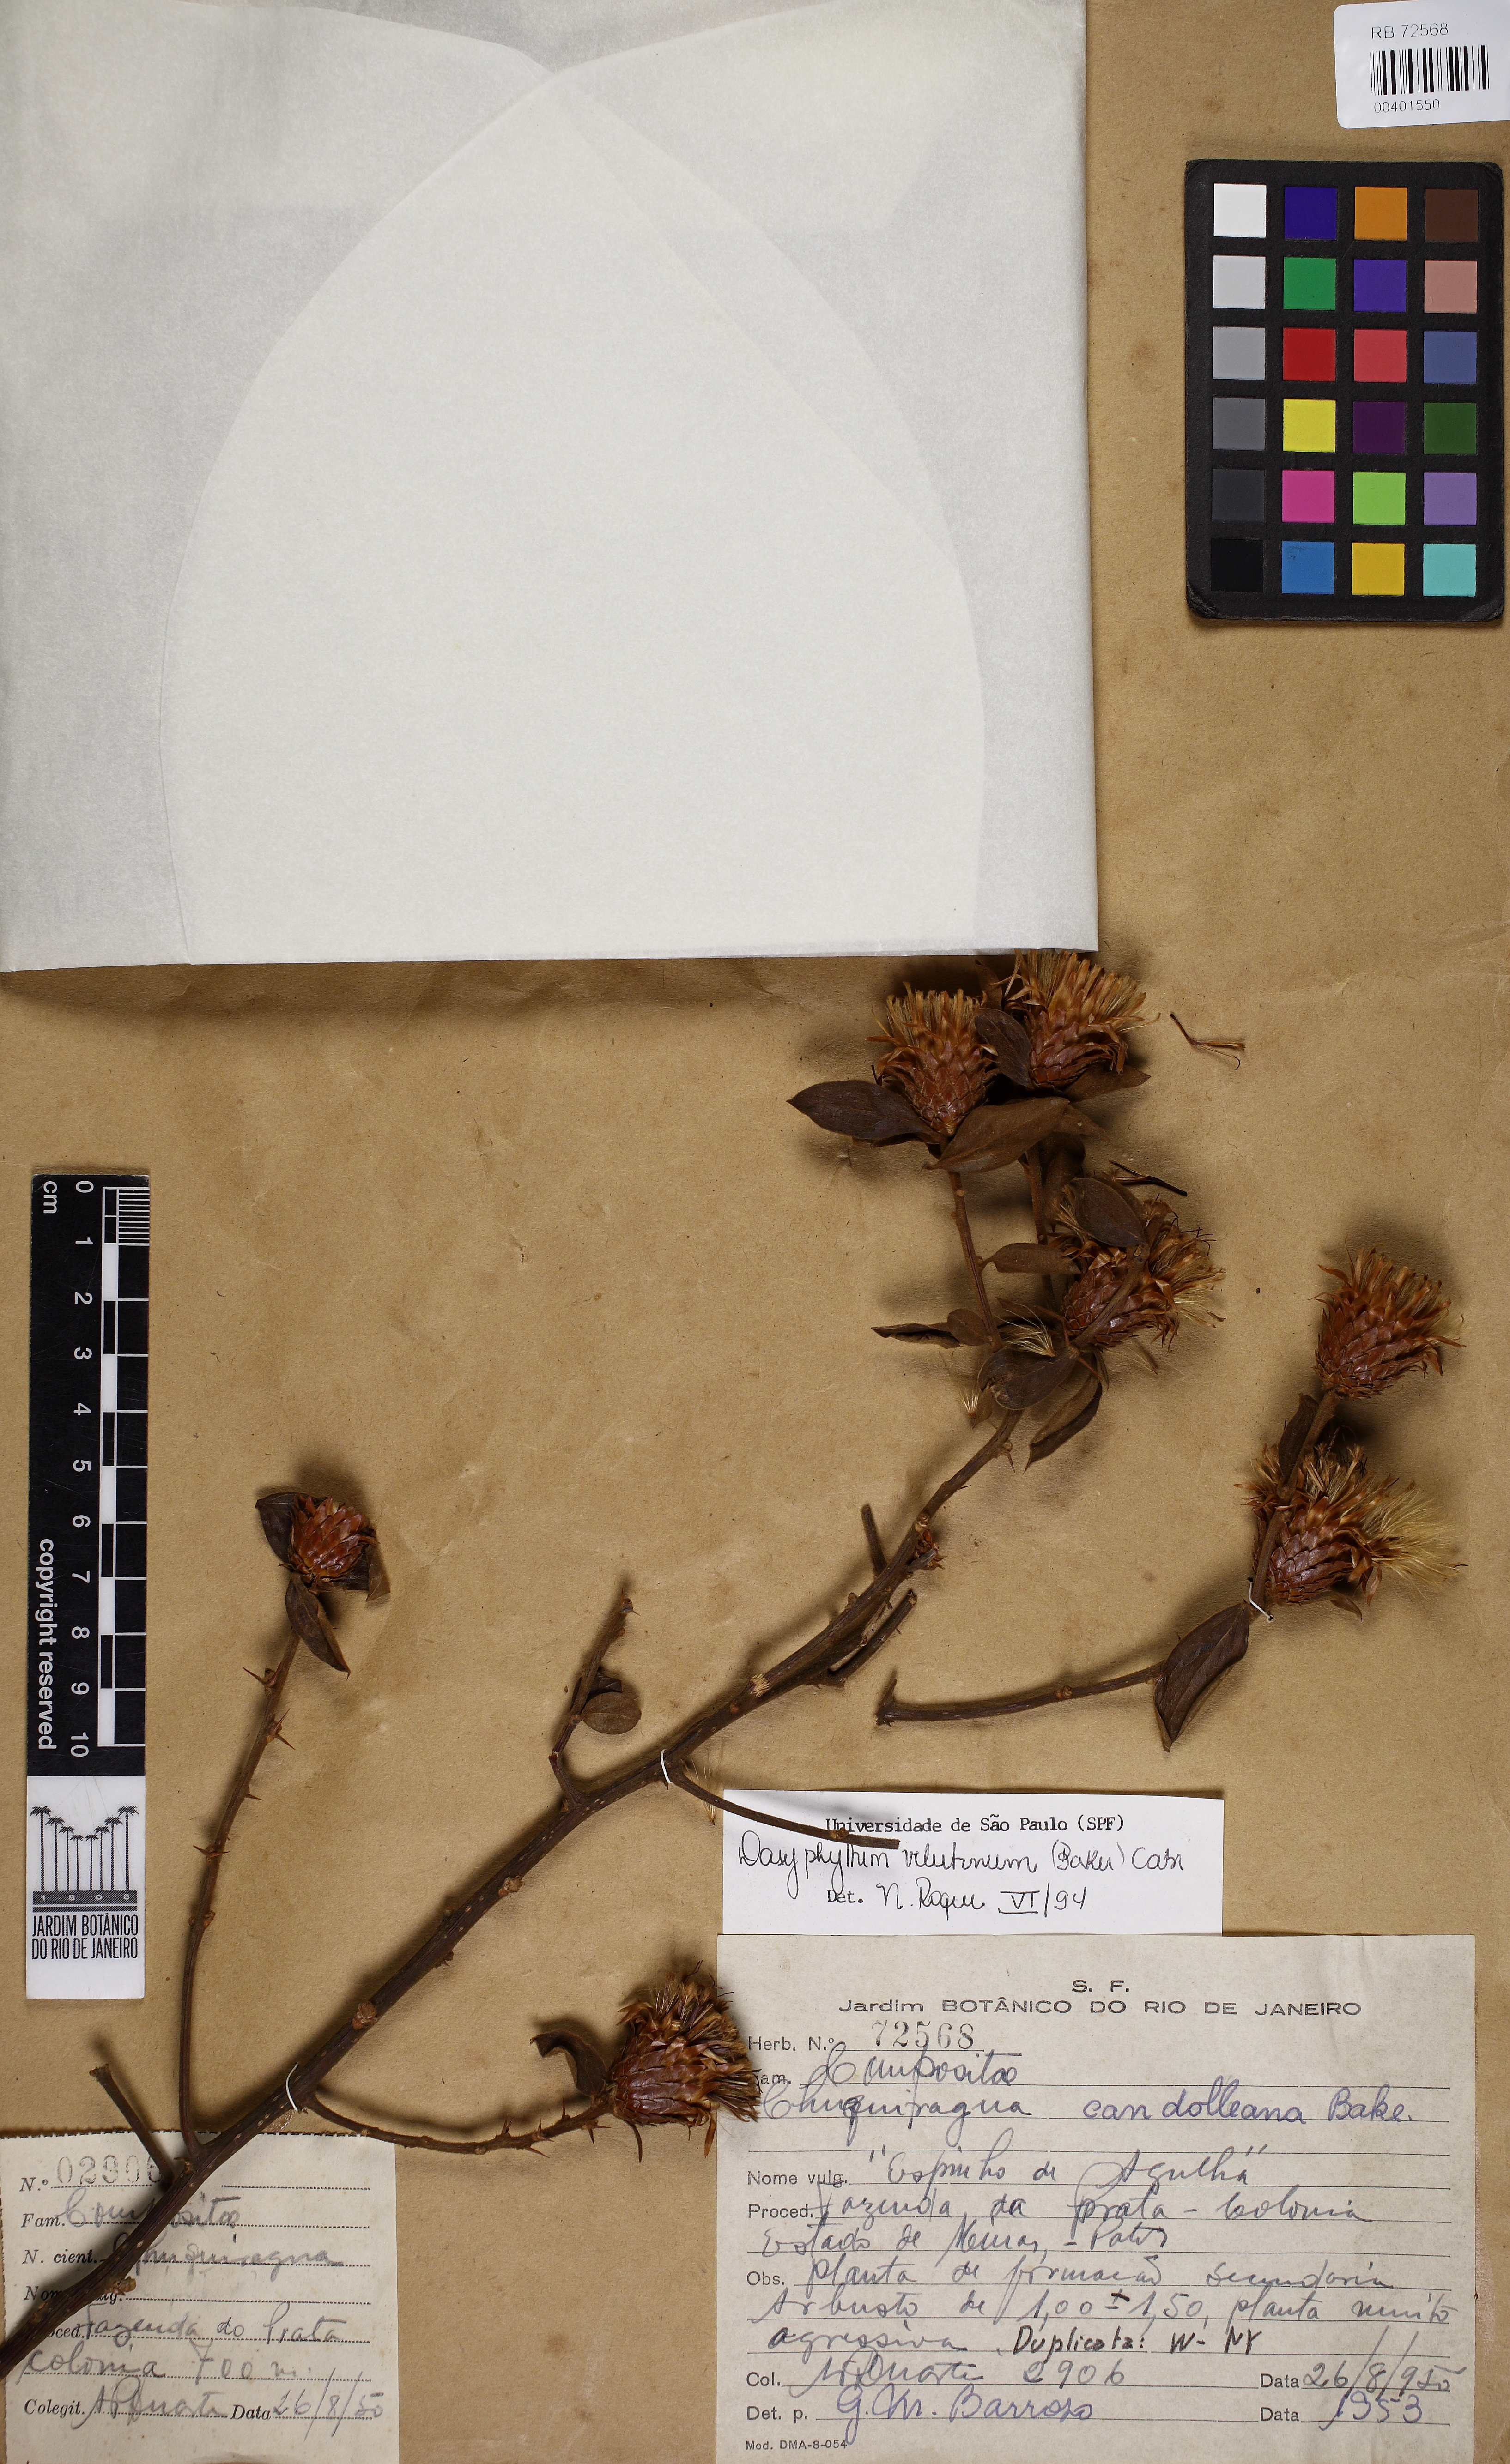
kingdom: Plantae
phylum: Tracheophyta
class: Magnoliopsida
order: Asterales
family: Asteraceae
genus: Dasyphyllum
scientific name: Dasyphyllum sprengelianum
